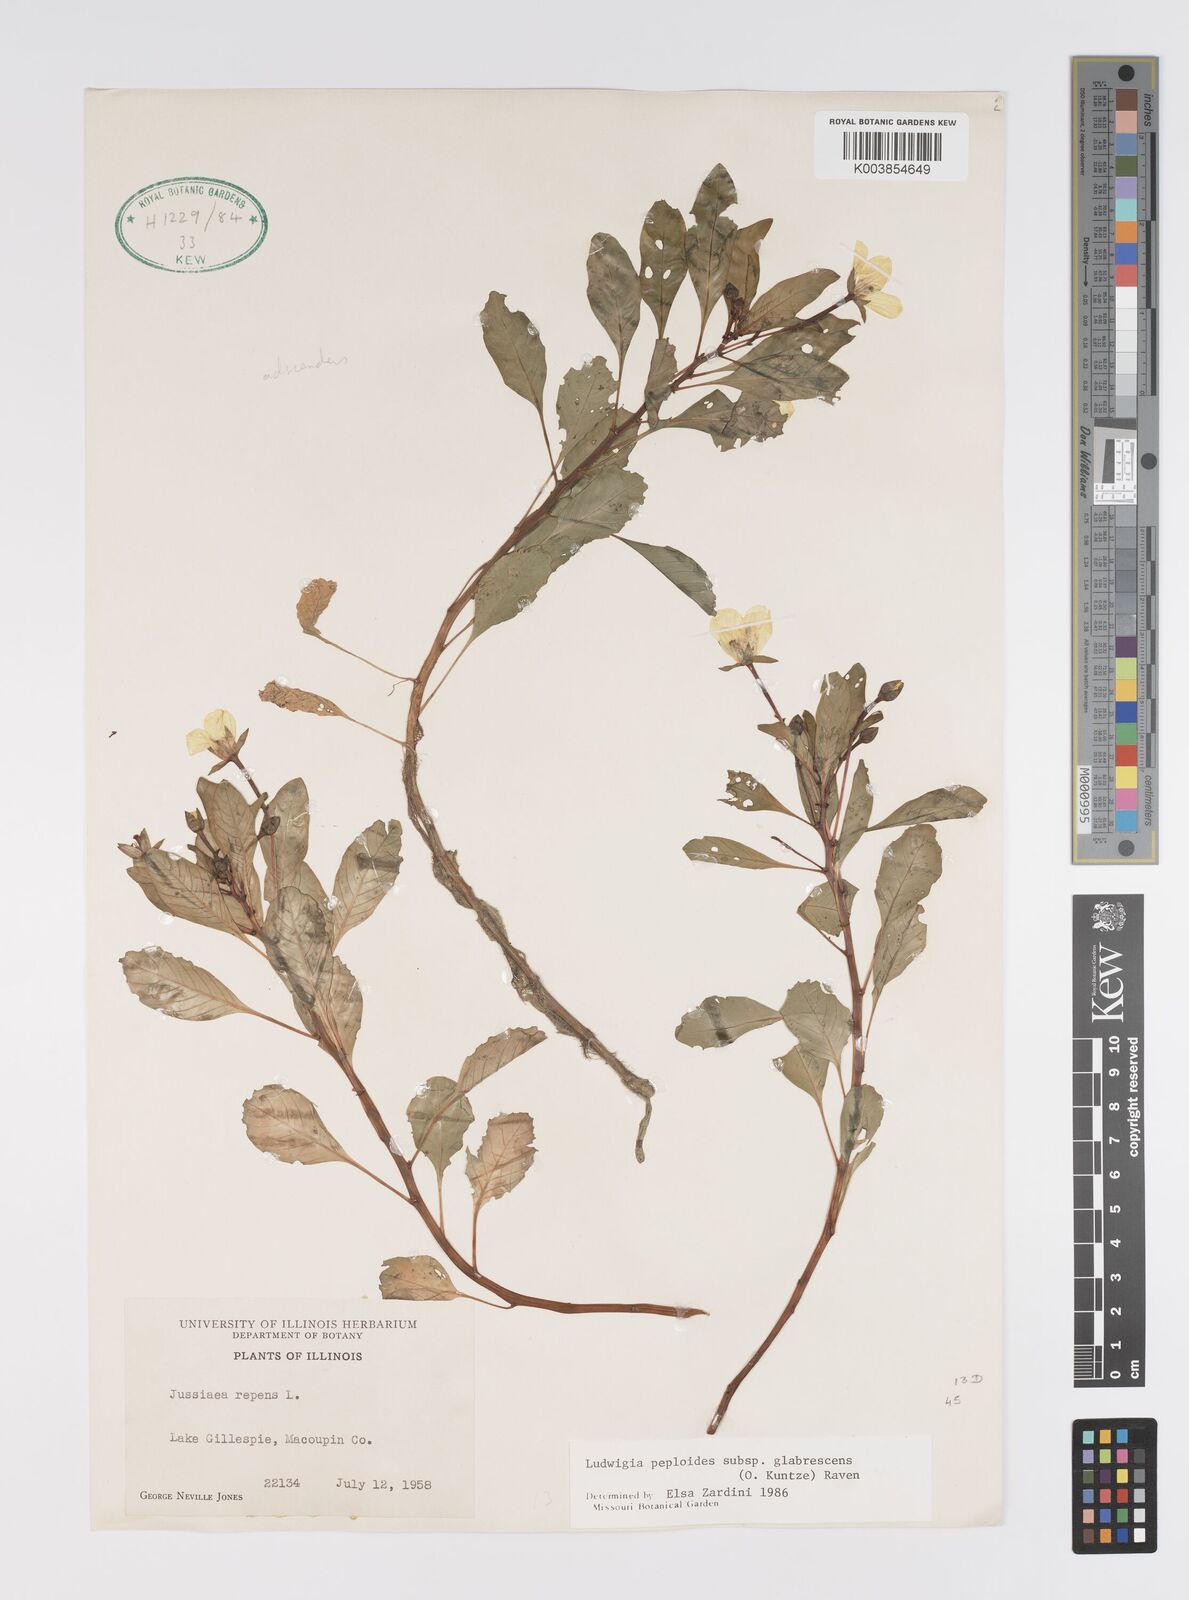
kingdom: Plantae
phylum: Tracheophyta
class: Magnoliopsida
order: Myrtales
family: Onagraceae
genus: Ludwigia
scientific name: Ludwigia peploides
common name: Floating primrose-willow
